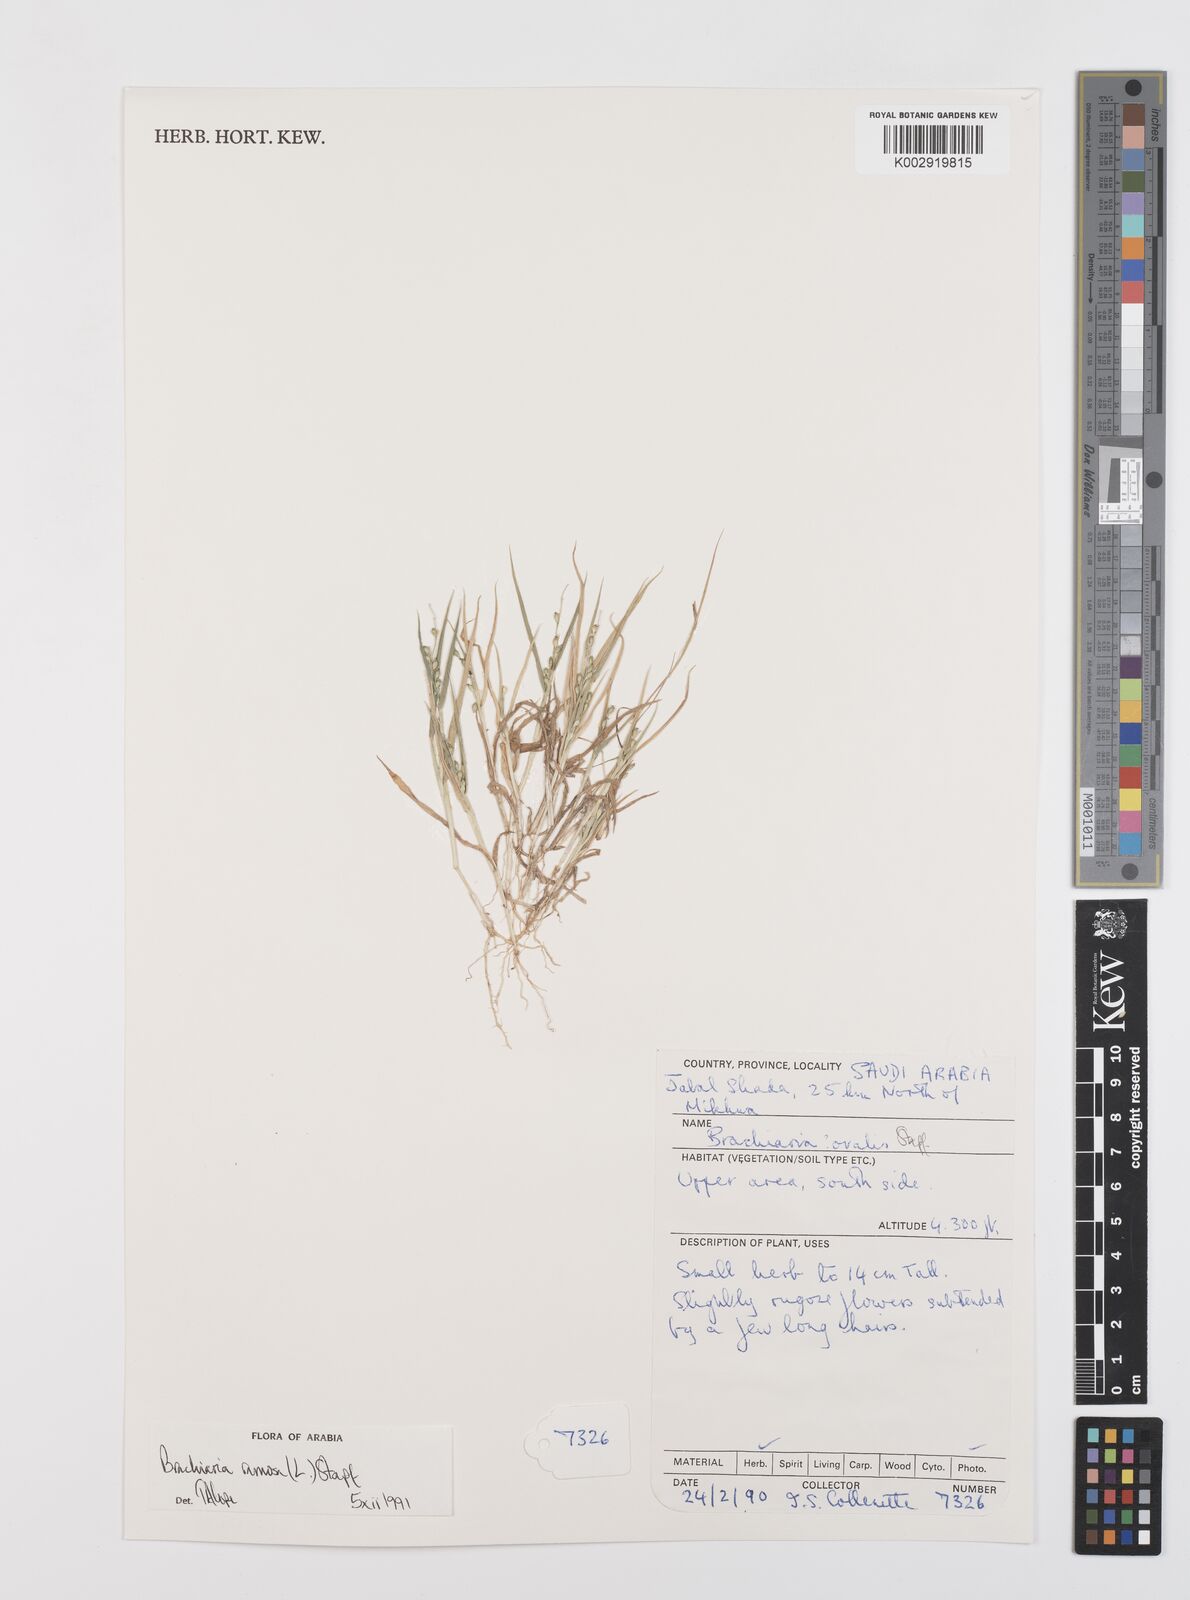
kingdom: Plantae
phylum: Tracheophyta
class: Liliopsida
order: Poales
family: Poaceae
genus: Urochloa
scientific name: Urochloa ramosa
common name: Browntop millet
